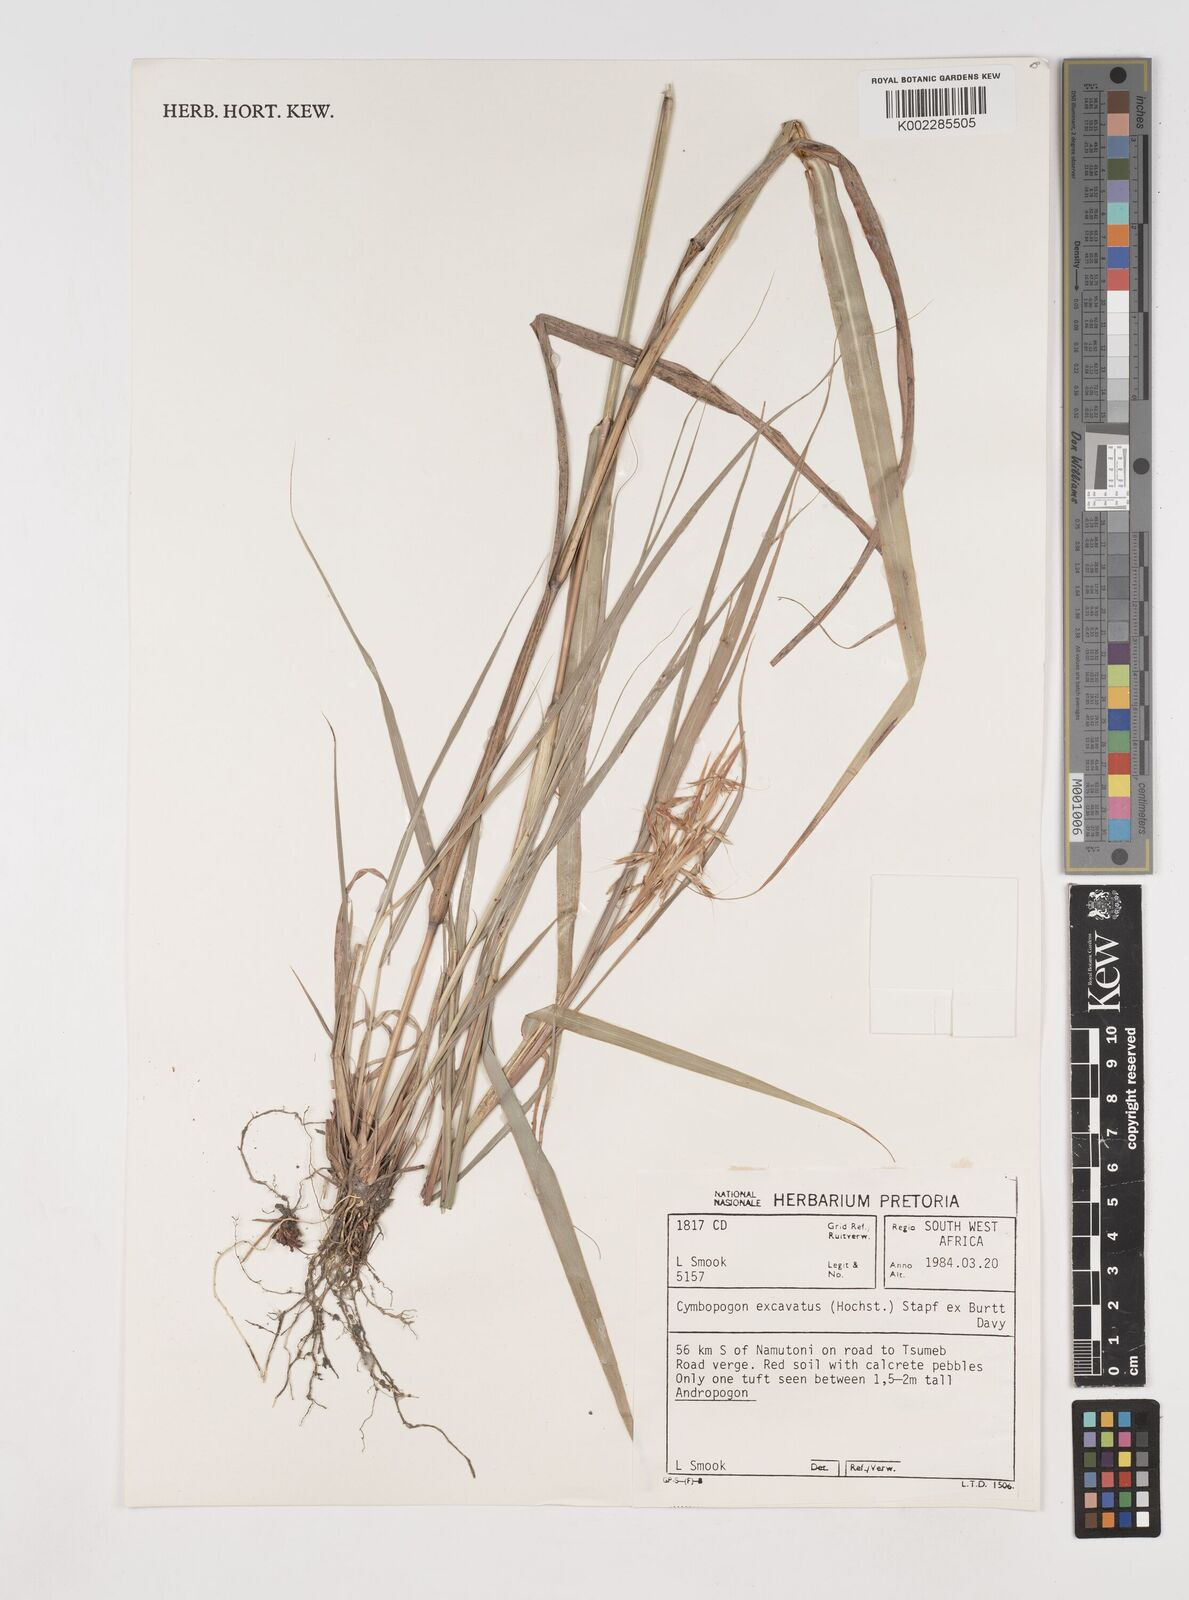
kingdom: Plantae
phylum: Tracheophyta
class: Liliopsida
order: Poales
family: Poaceae
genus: Cymbopogon
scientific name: Cymbopogon caesius
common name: Kachi grass
